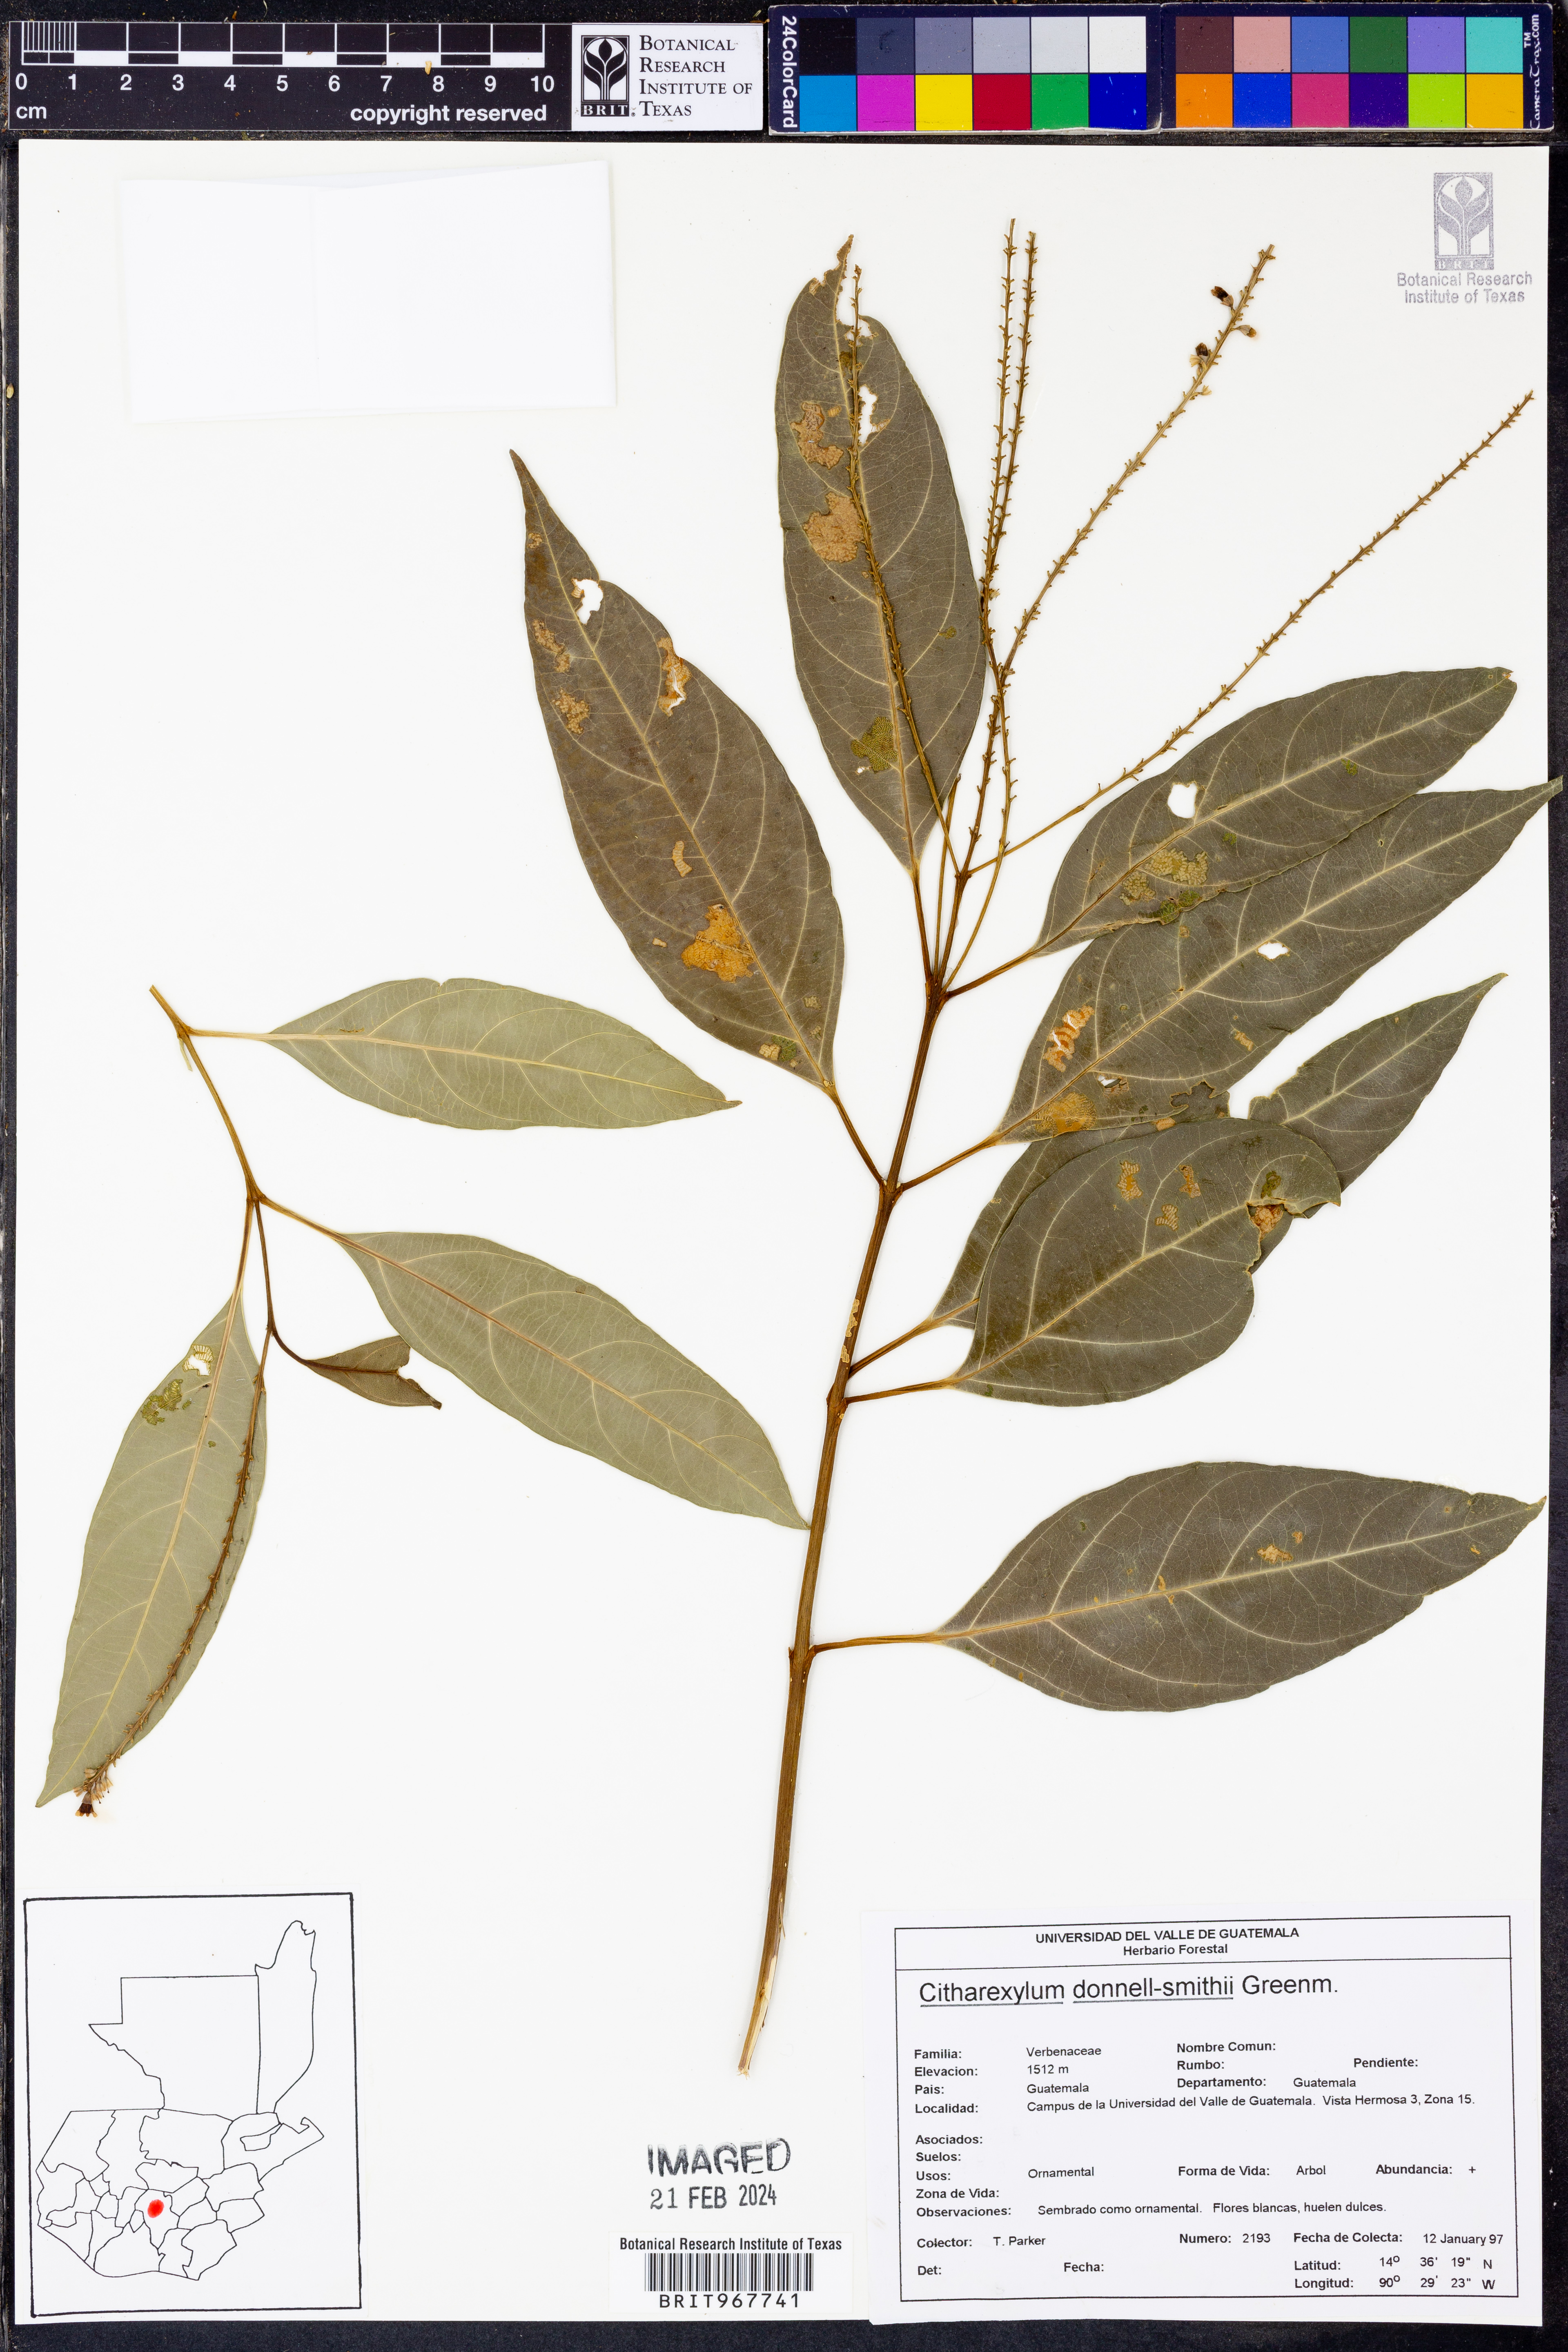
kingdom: Plantae
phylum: Tracheophyta
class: Magnoliopsida
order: Lamiales
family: Verbenaceae
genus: Citharexylum
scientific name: Citharexylum
